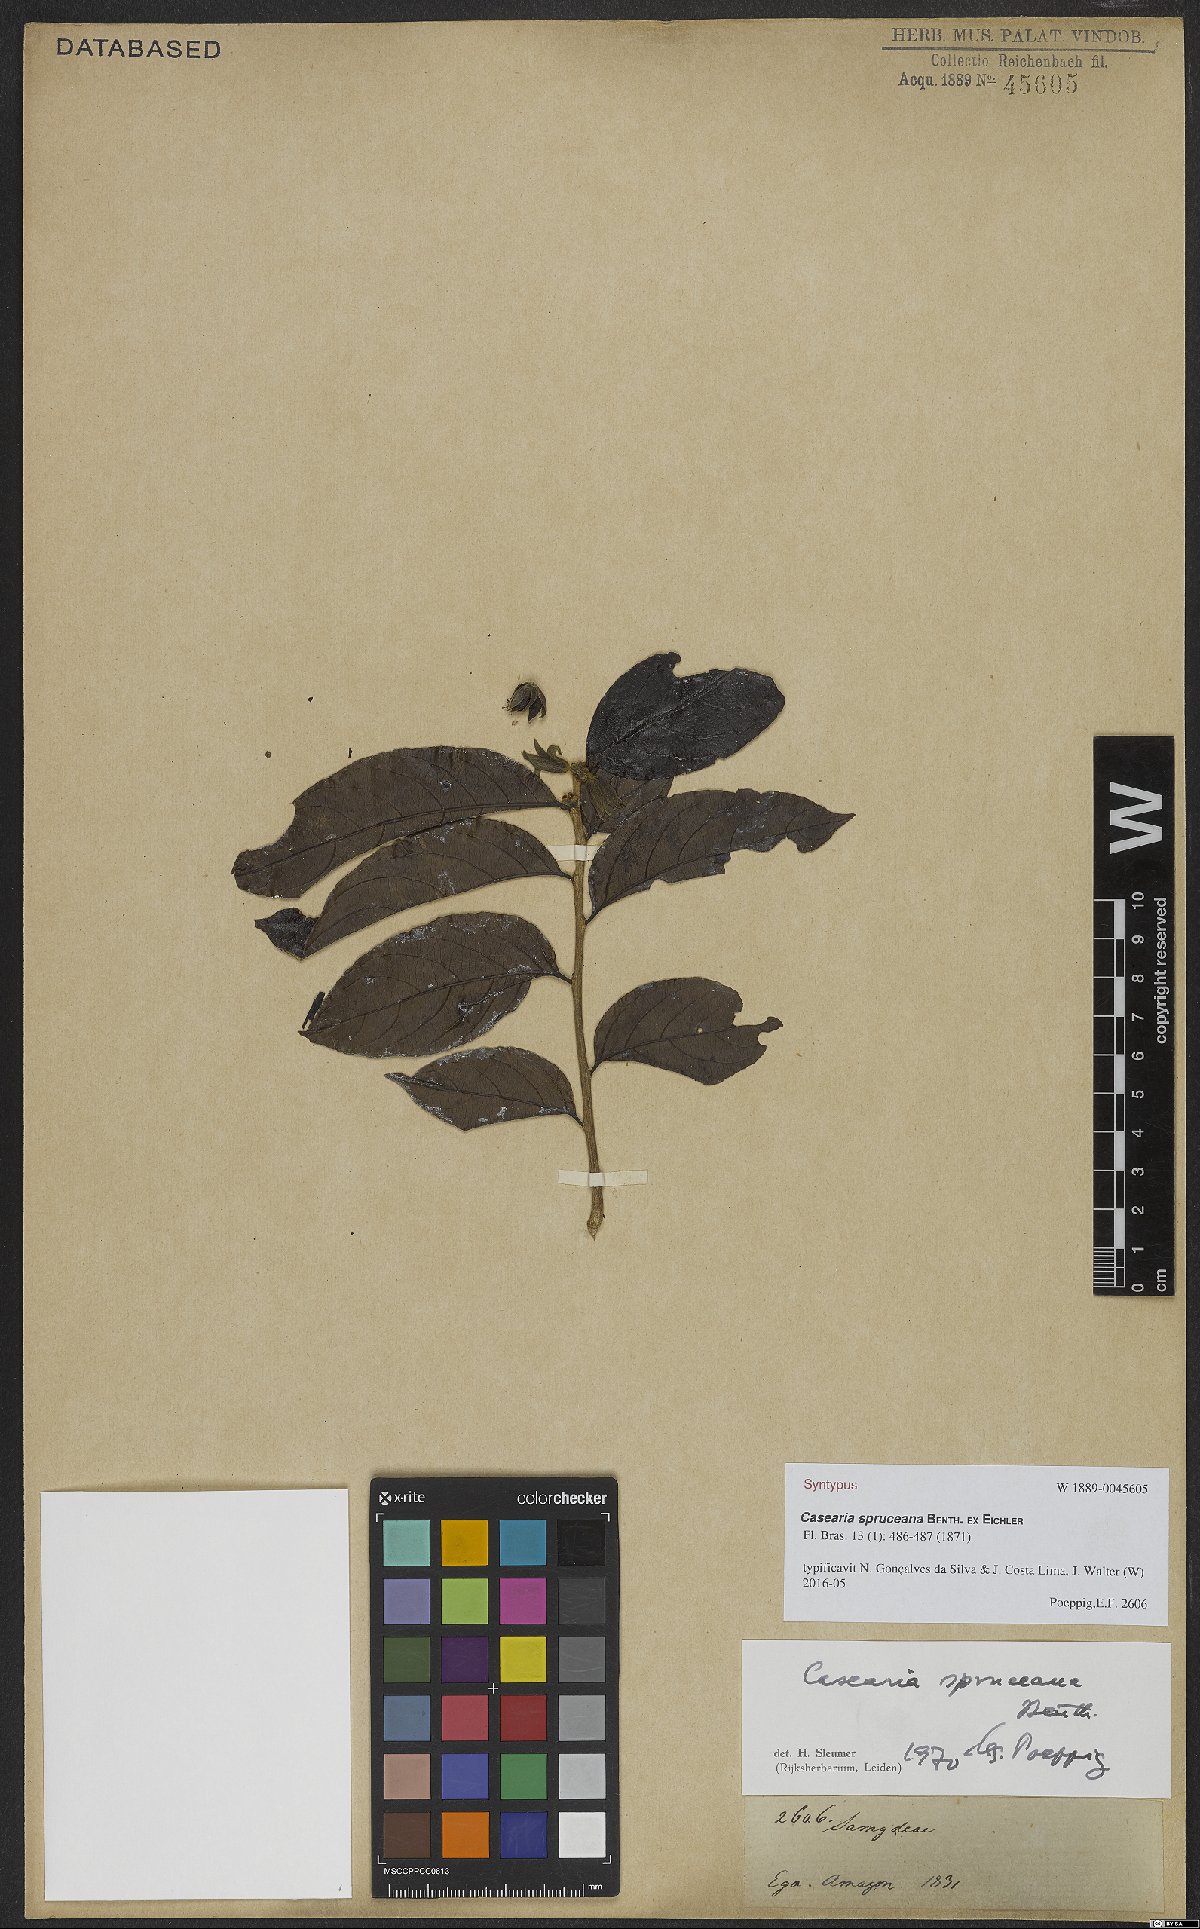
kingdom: Plantae
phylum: Tracheophyta
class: Magnoliopsida
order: Malpighiales
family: Salicaceae
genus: Piparea
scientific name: Piparea spruceana
